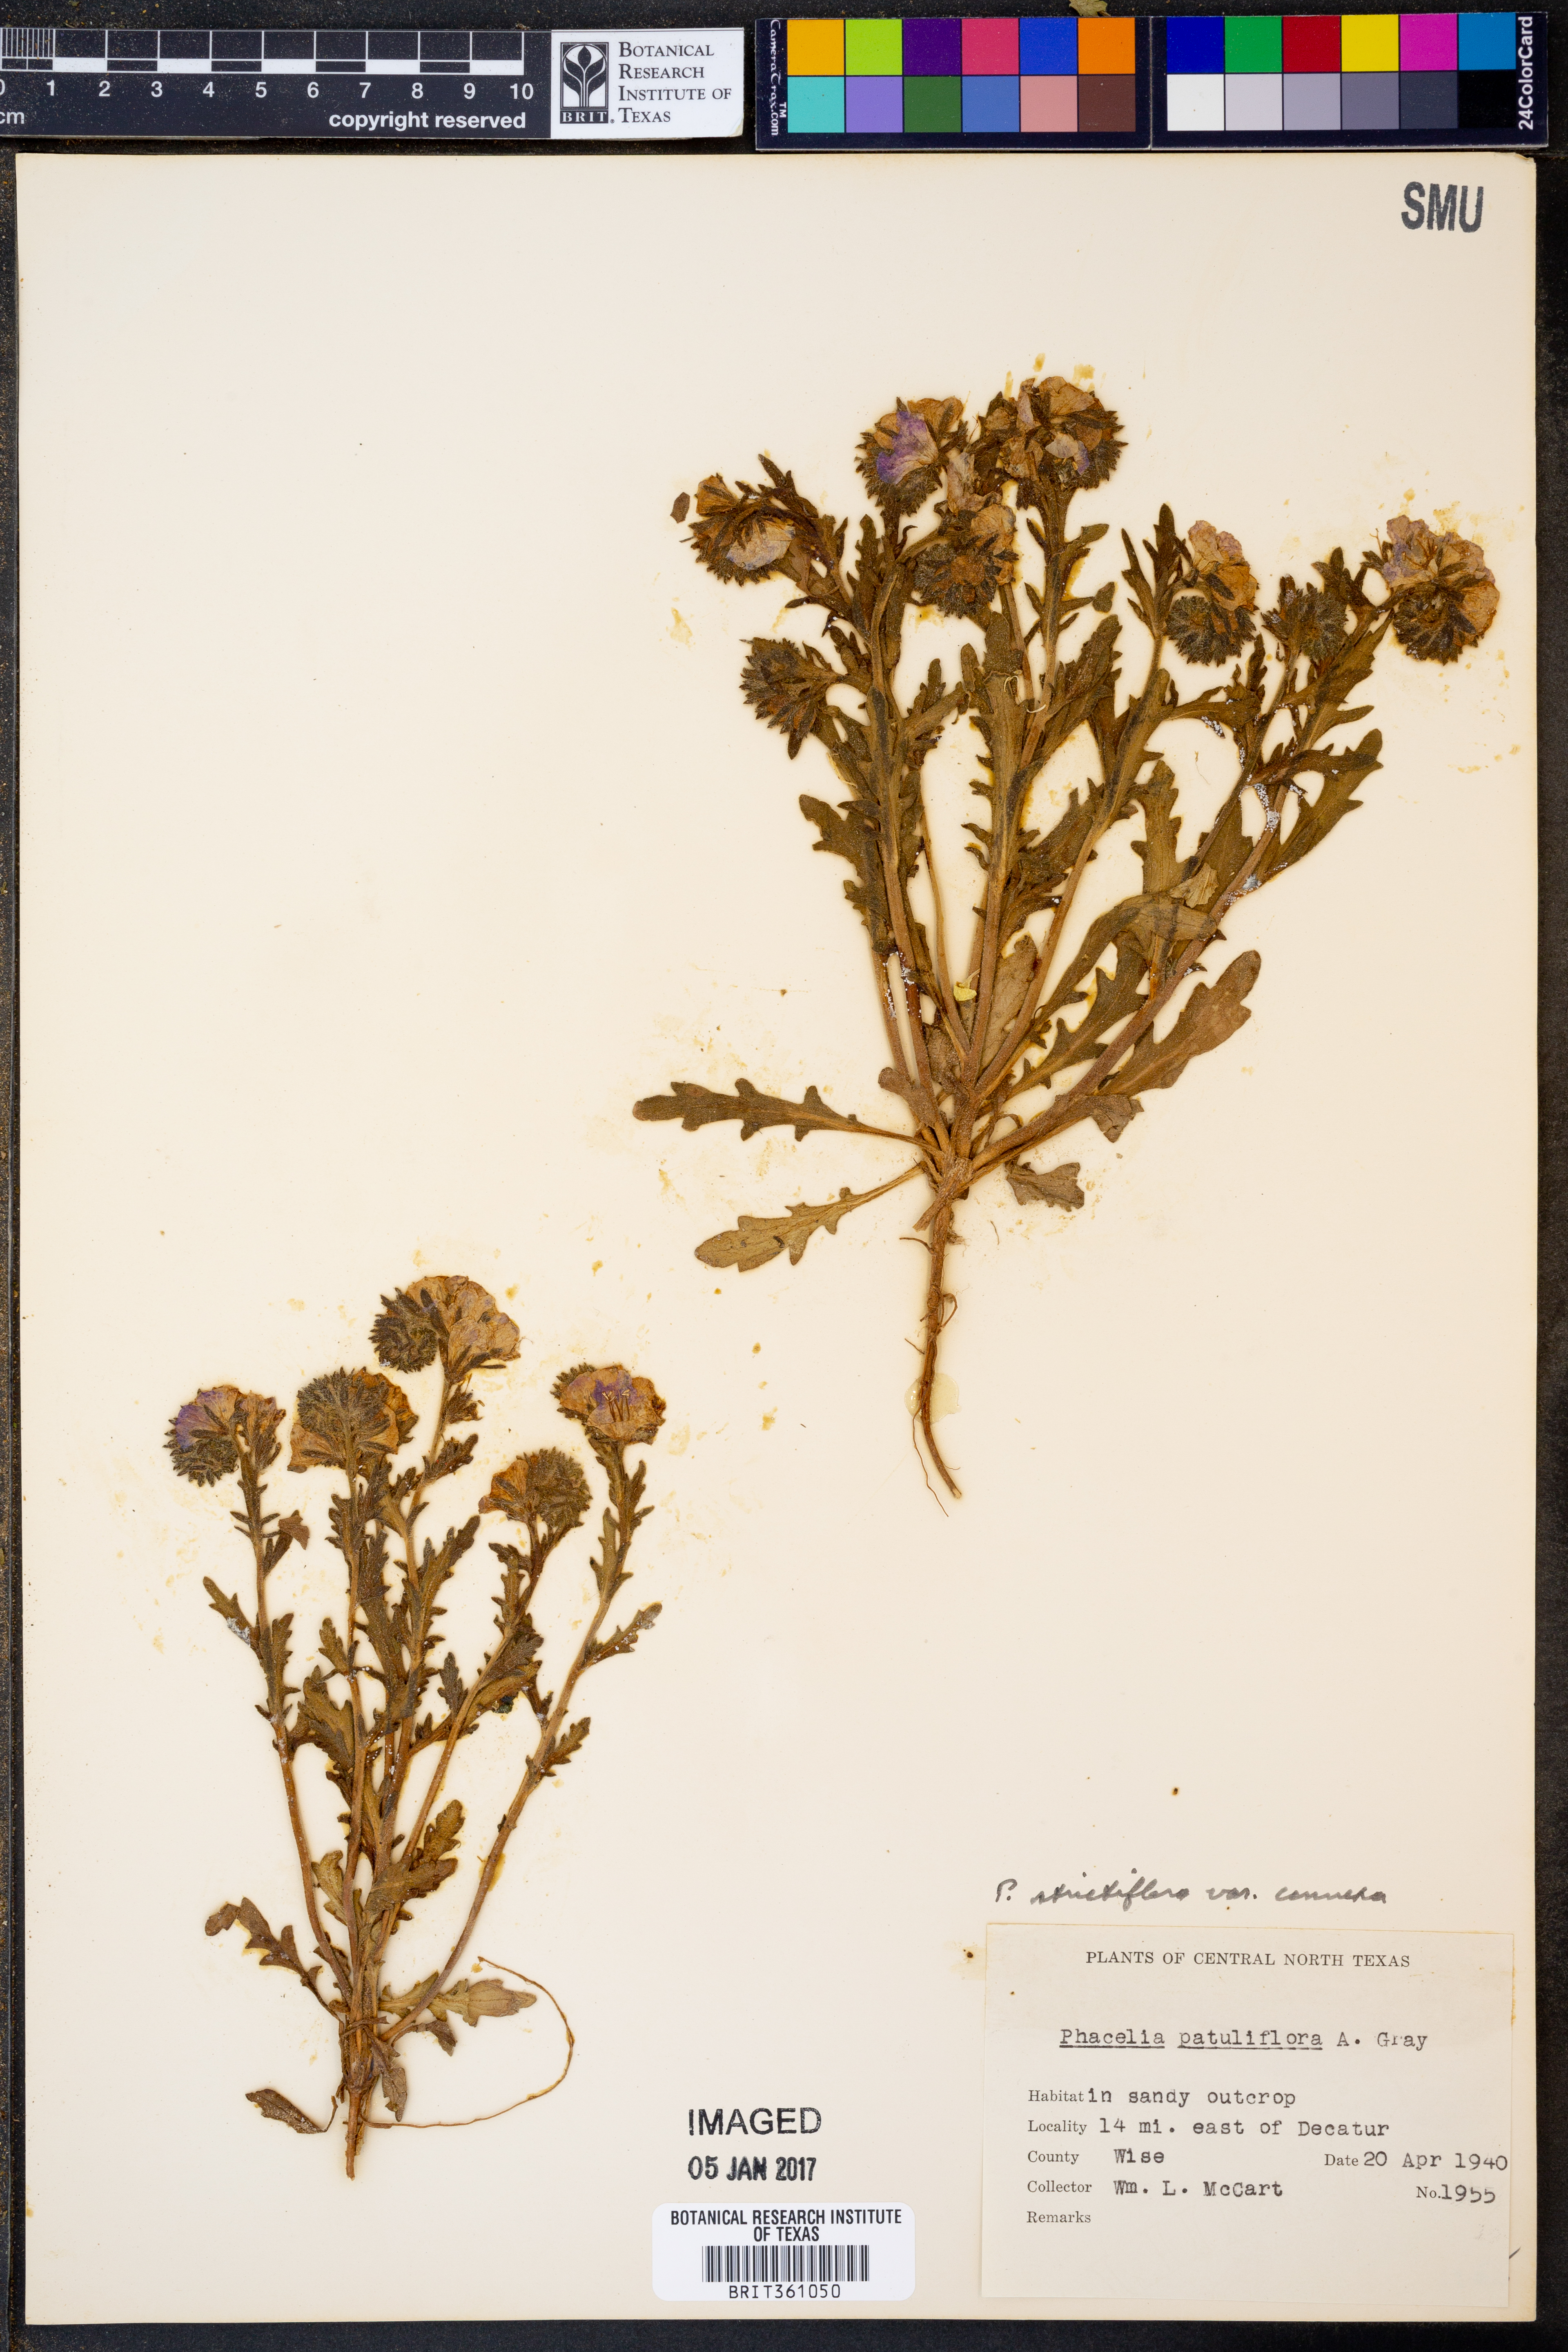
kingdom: Plantae
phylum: Tracheophyta
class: Magnoliopsida
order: Boraginales
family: Hydrophyllaceae
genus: Phacelia
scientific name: Phacelia strictiflora
